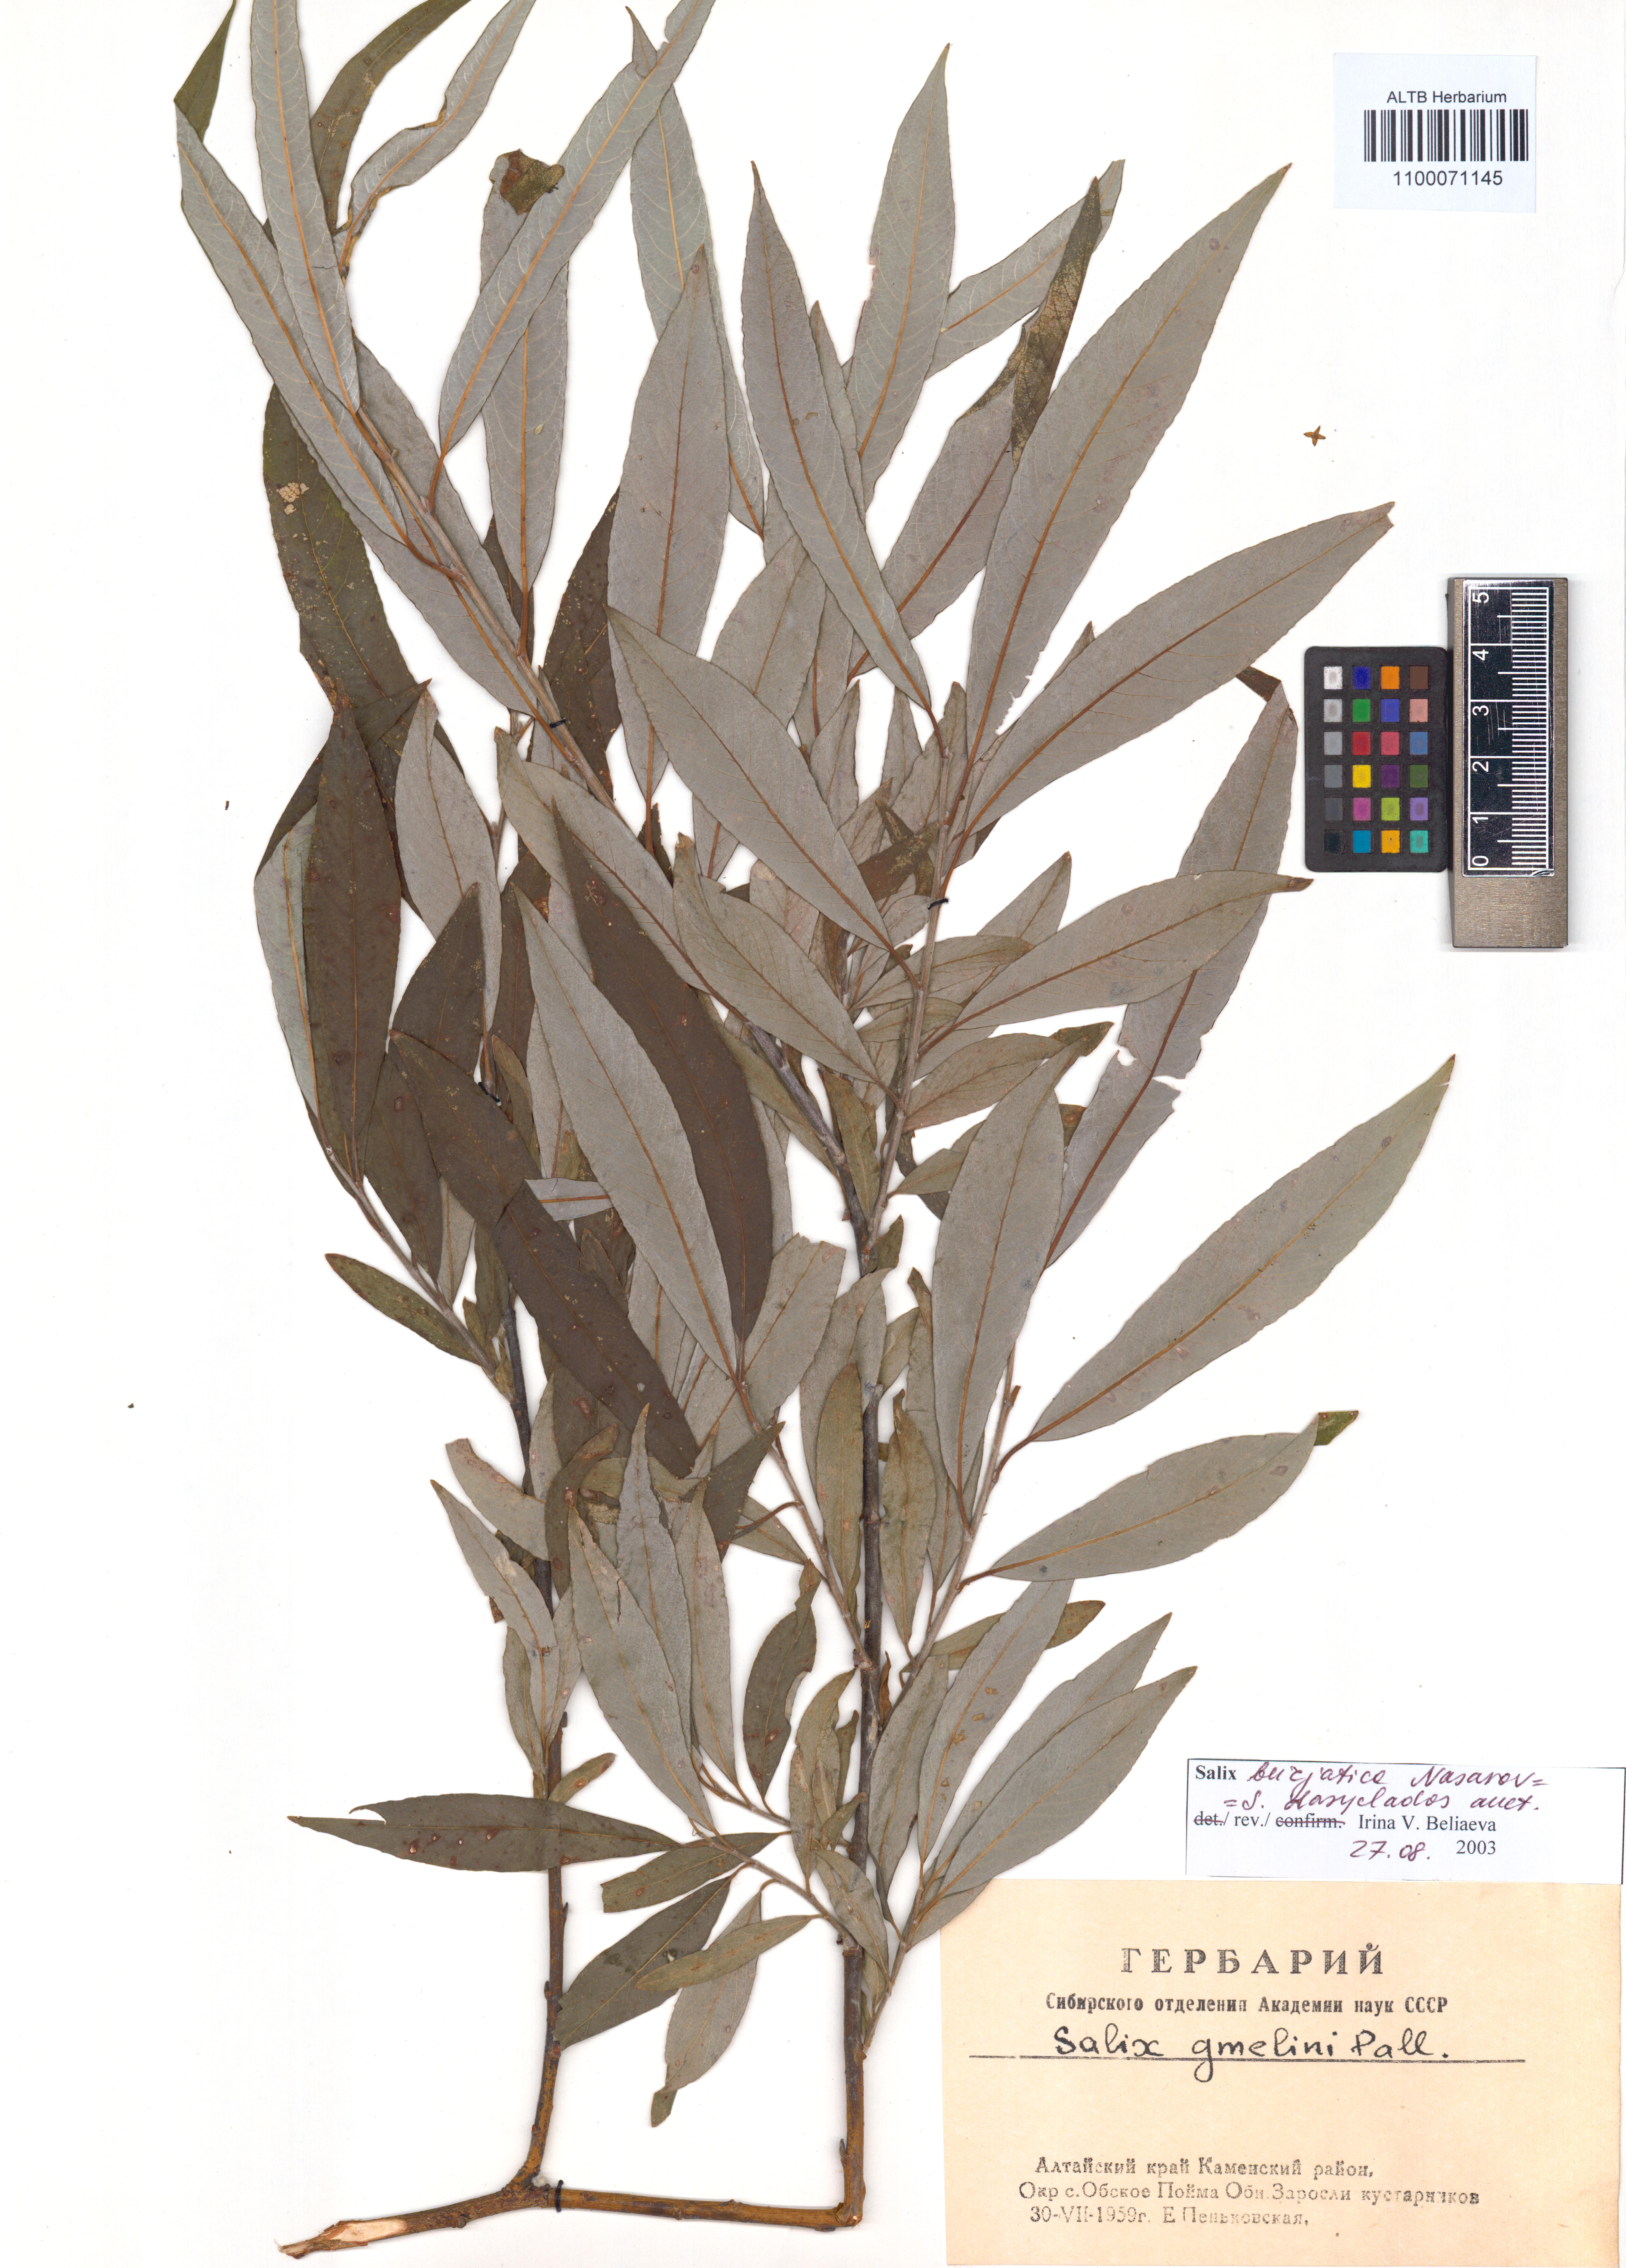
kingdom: Plantae
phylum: Tracheophyta
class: Magnoliopsida
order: Malpighiales
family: Salicaceae
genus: Salix
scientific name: Salix gmelinii
